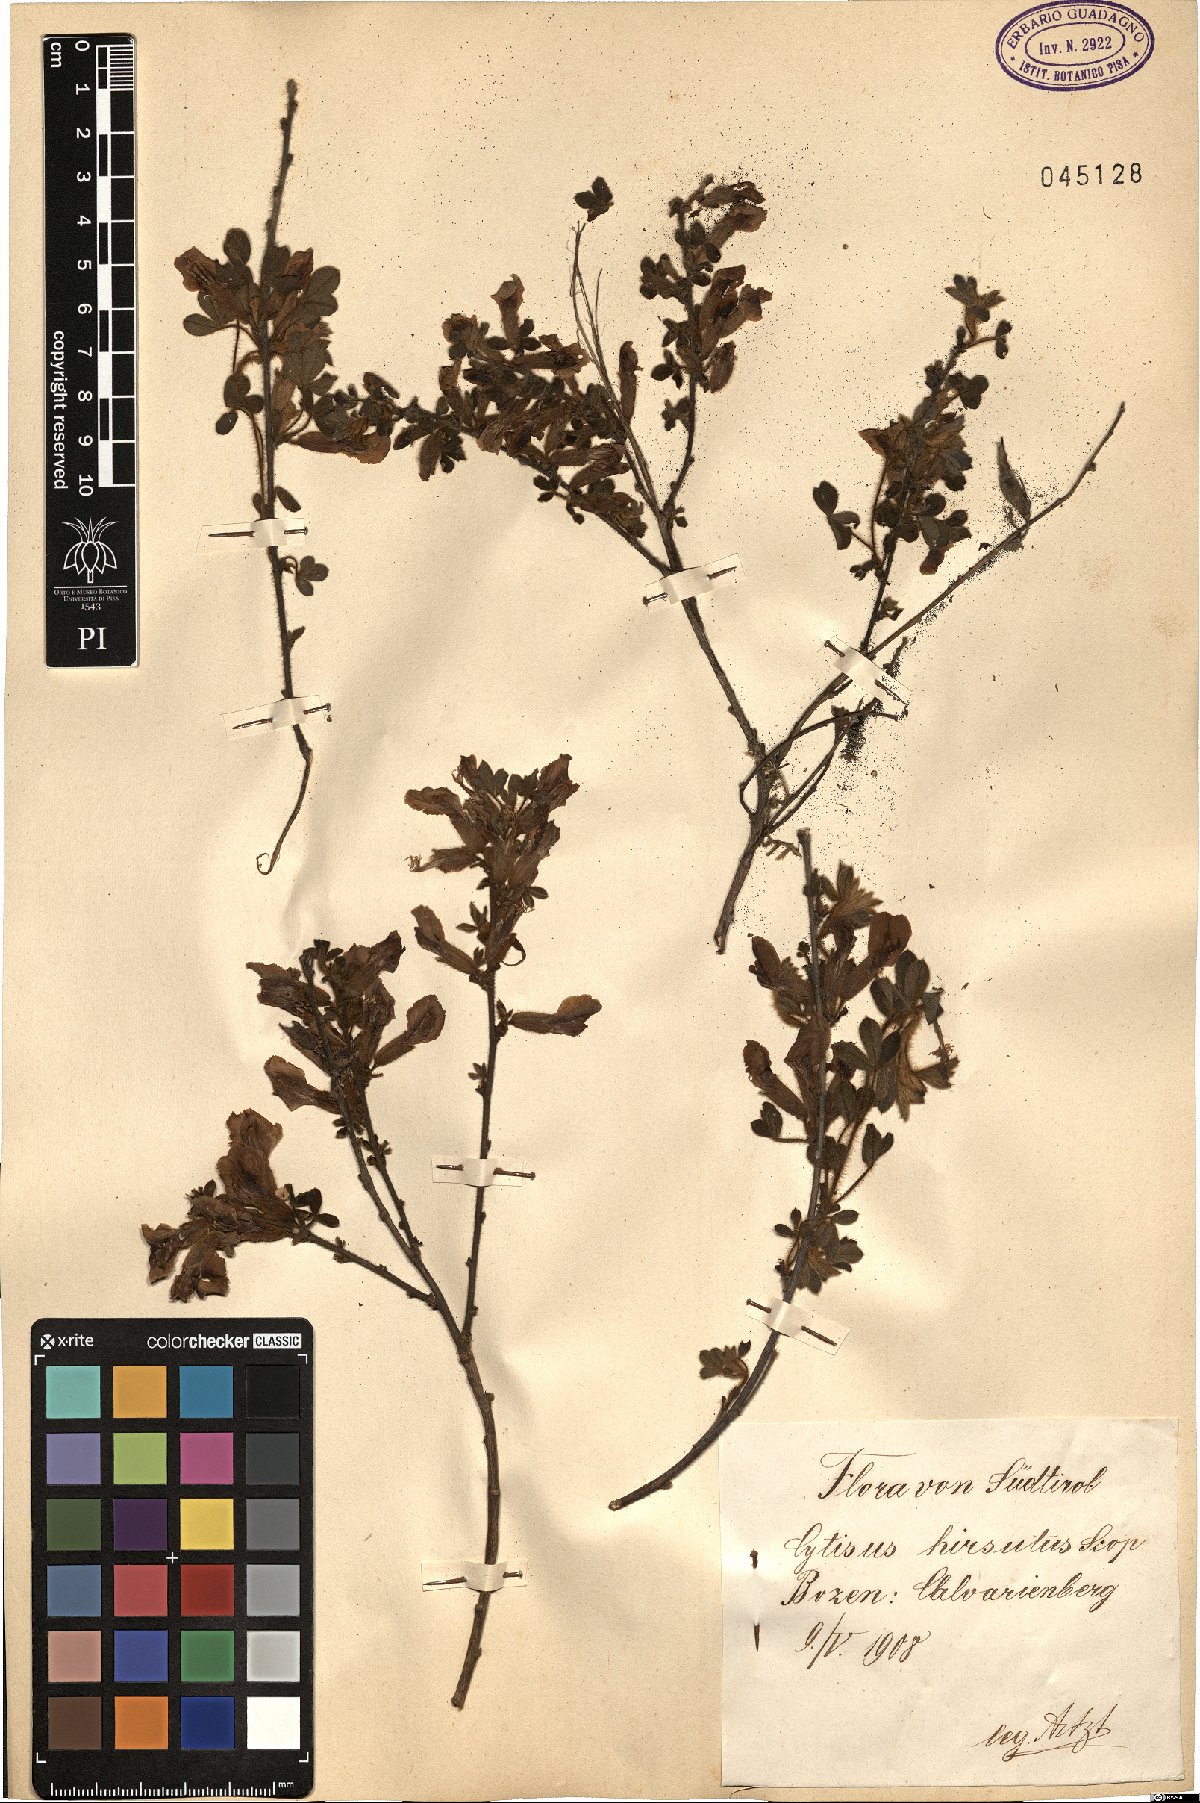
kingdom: Plantae
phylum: Tracheophyta
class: Magnoliopsida
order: Fabales
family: Fabaceae
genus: Chamaecytisus
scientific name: Chamaecytisus hirsutus
